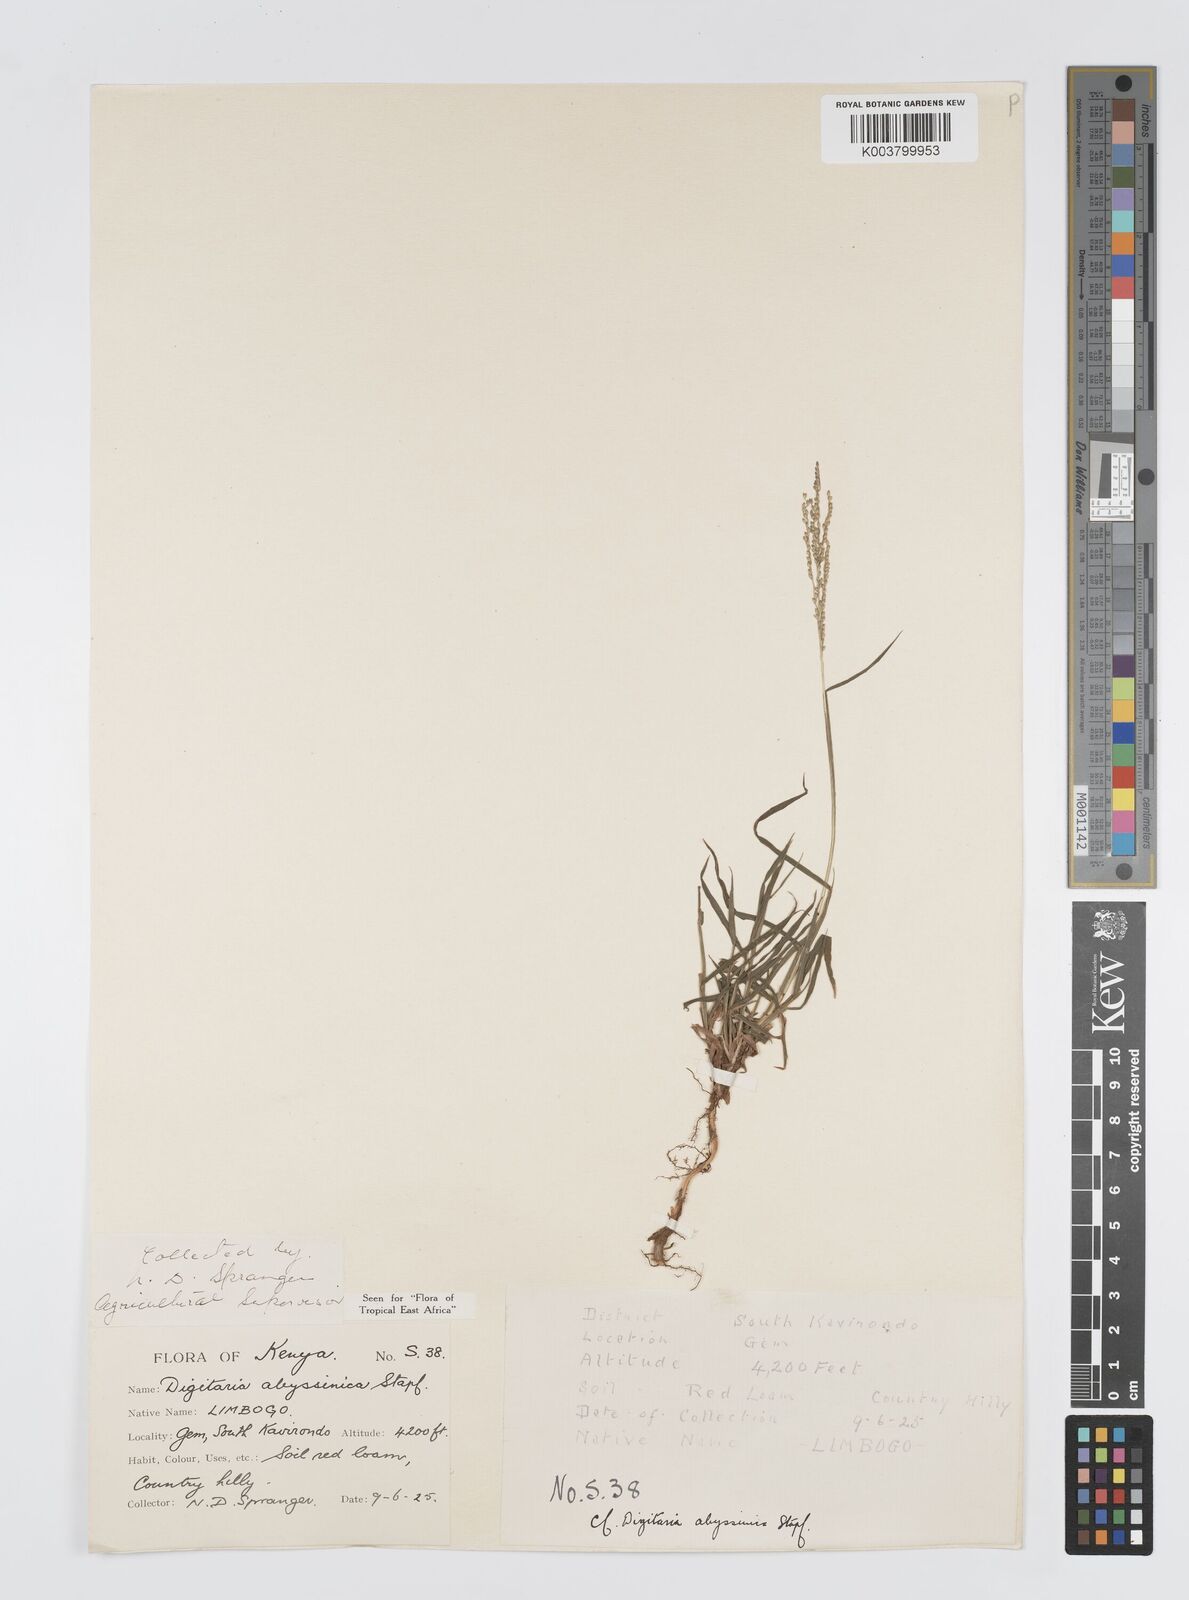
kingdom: Plantae
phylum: Tracheophyta
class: Liliopsida
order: Poales
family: Poaceae
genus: Digitaria
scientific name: Digitaria abyssinica
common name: African couchgrass
